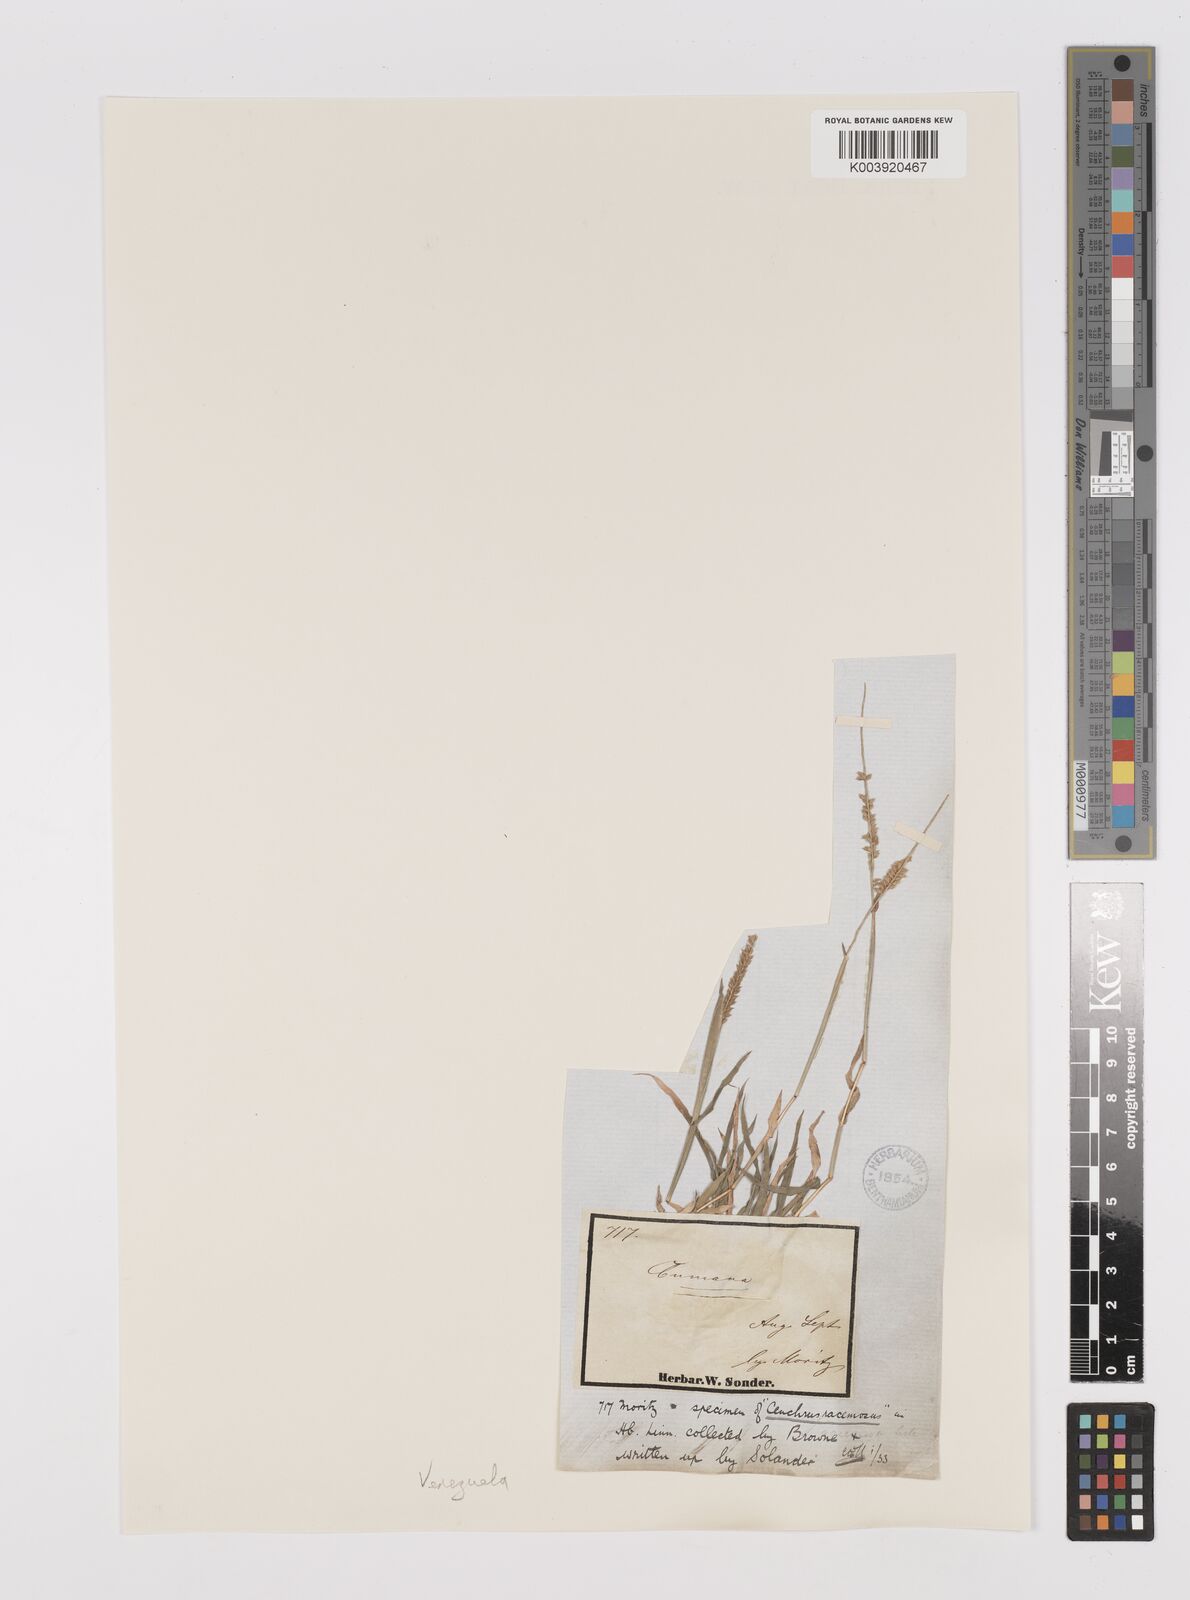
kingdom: Plantae
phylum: Tracheophyta
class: Liliopsida
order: Poales
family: Poaceae
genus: Tragus
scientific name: Tragus berteronianus
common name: African bur-grass
